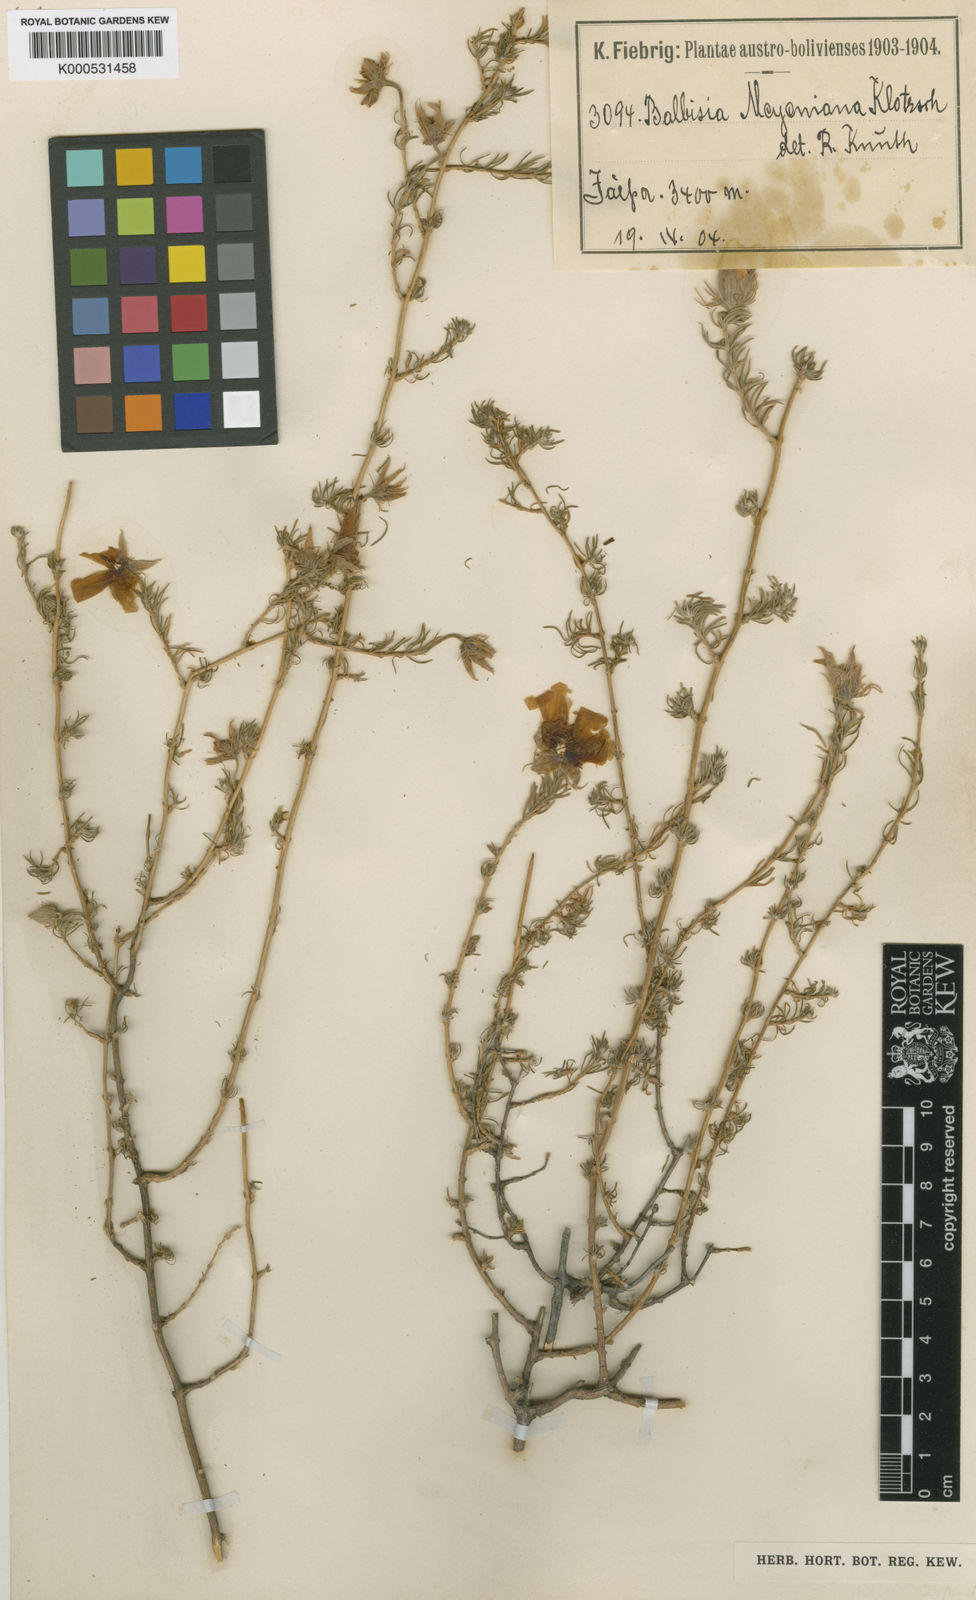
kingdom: Plantae
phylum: Tracheophyta
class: Magnoliopsida
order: Geraniales
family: Vivianiaceae
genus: Balbisia
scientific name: Balbisia meyeniana
